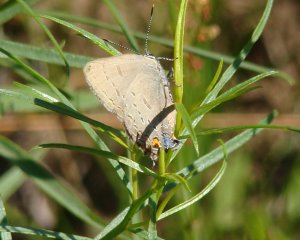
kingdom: Animalia
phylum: Arthropoda
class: Insecta
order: Lepidoptera
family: Lycaenidae
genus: Satyrium
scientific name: Satyrium edwardsii
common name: Edwards' Hairstreak
